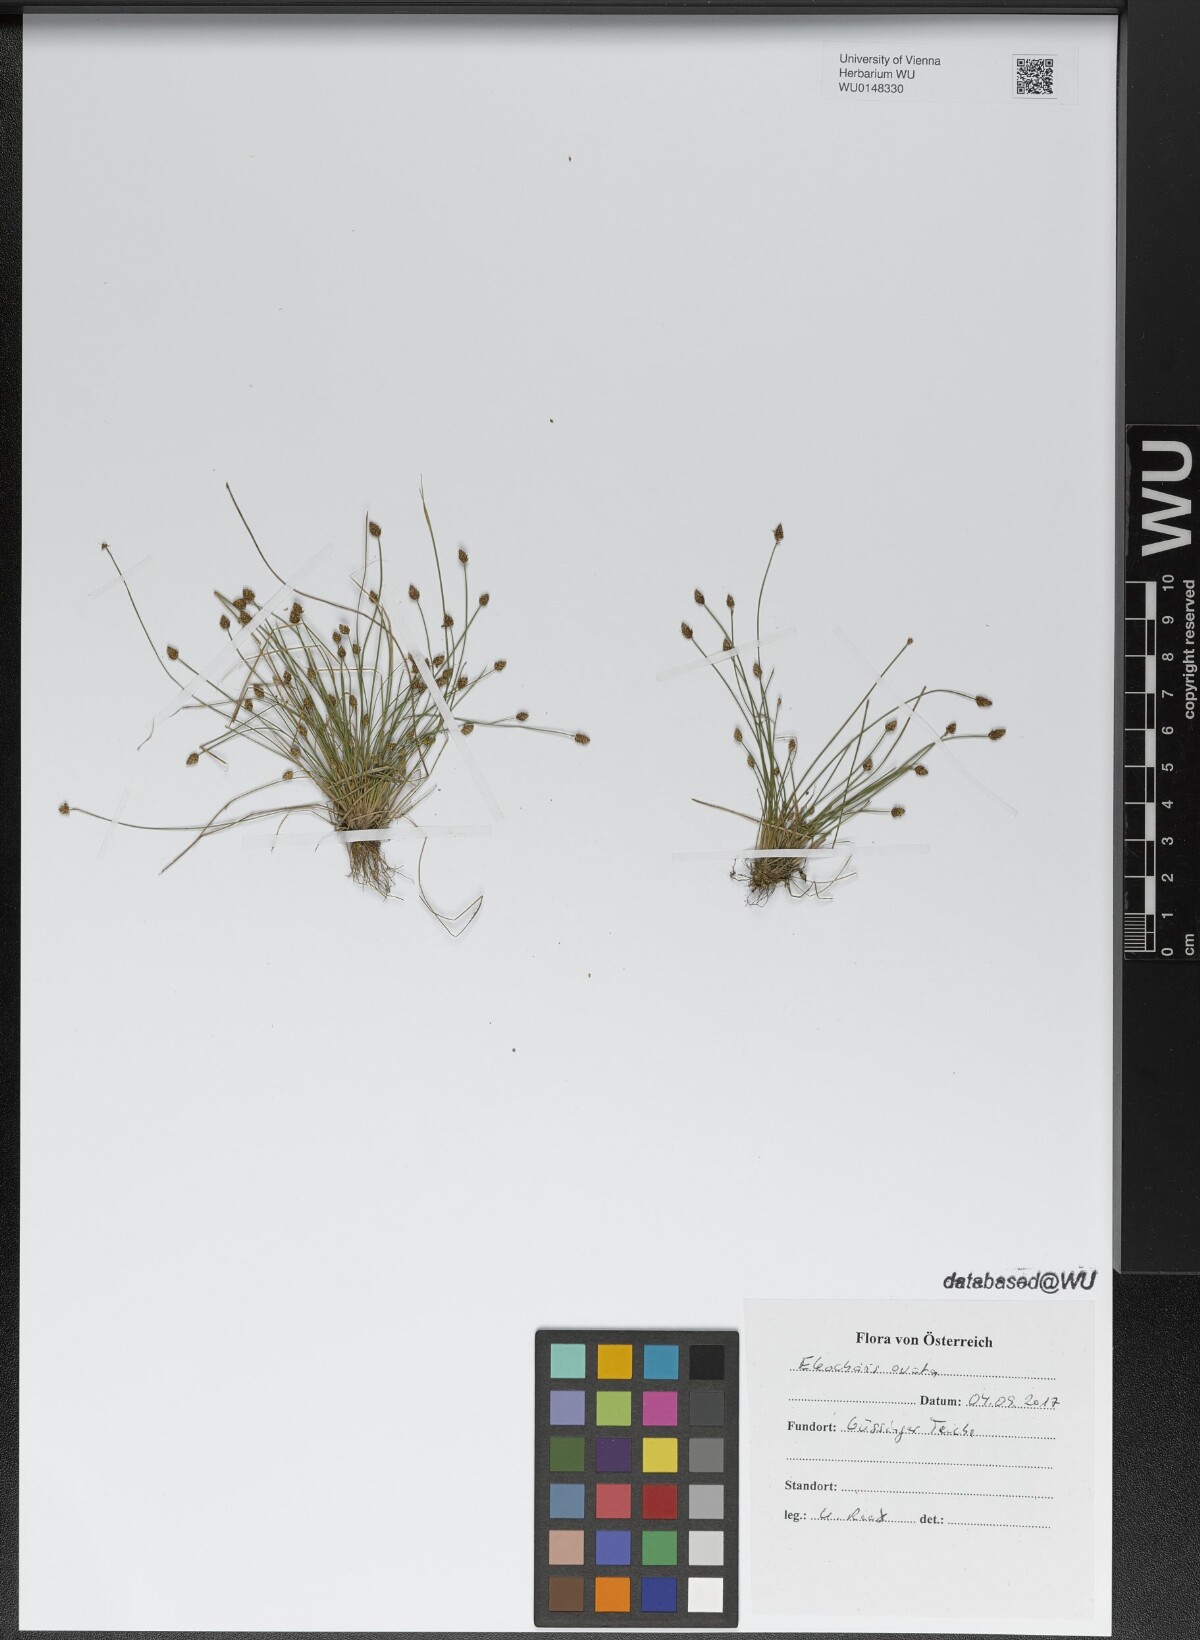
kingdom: Plantae
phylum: Tracheophyta
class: Liliopsida
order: Poales
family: Cyperaceae
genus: Eleocharis
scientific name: Eleocharis ovata
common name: Oval spike-rush
